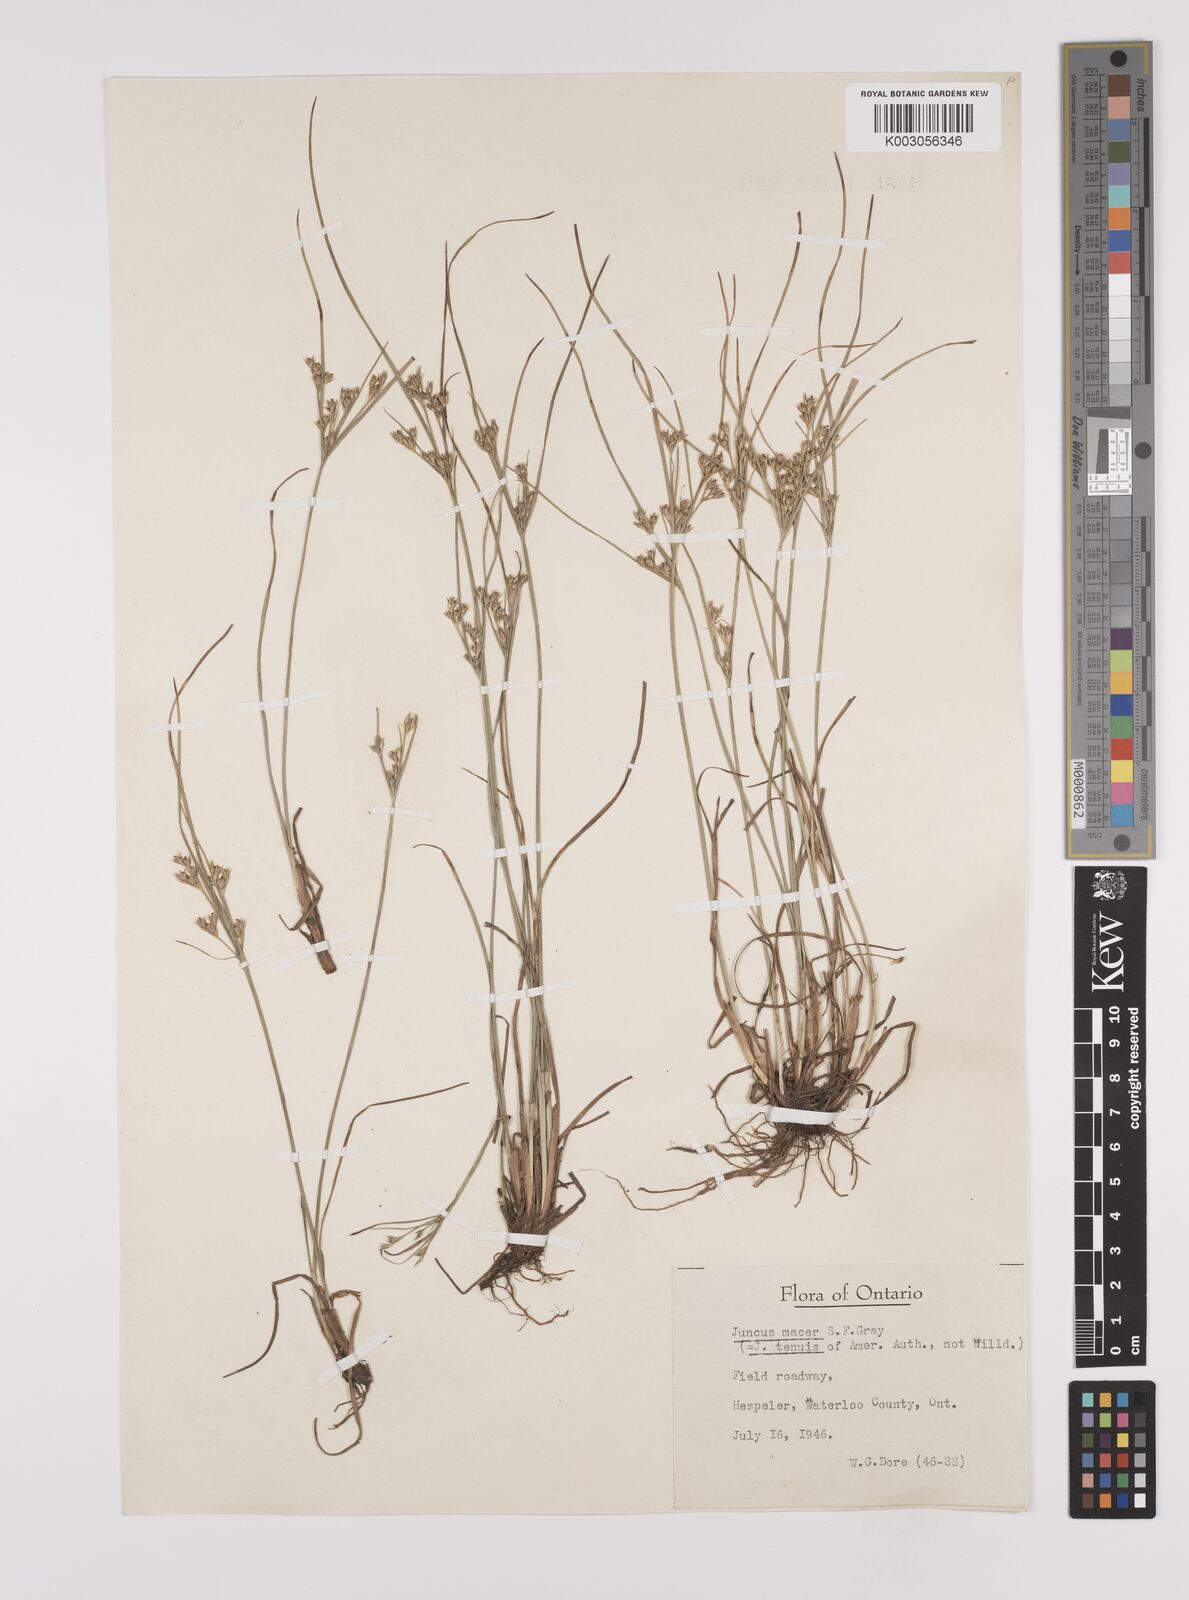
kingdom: Plantae
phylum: Tracheophyta
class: Liliopsida
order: Poales
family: Juncaceae
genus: Juncus
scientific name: Juncus tenuis
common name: Slender rush
